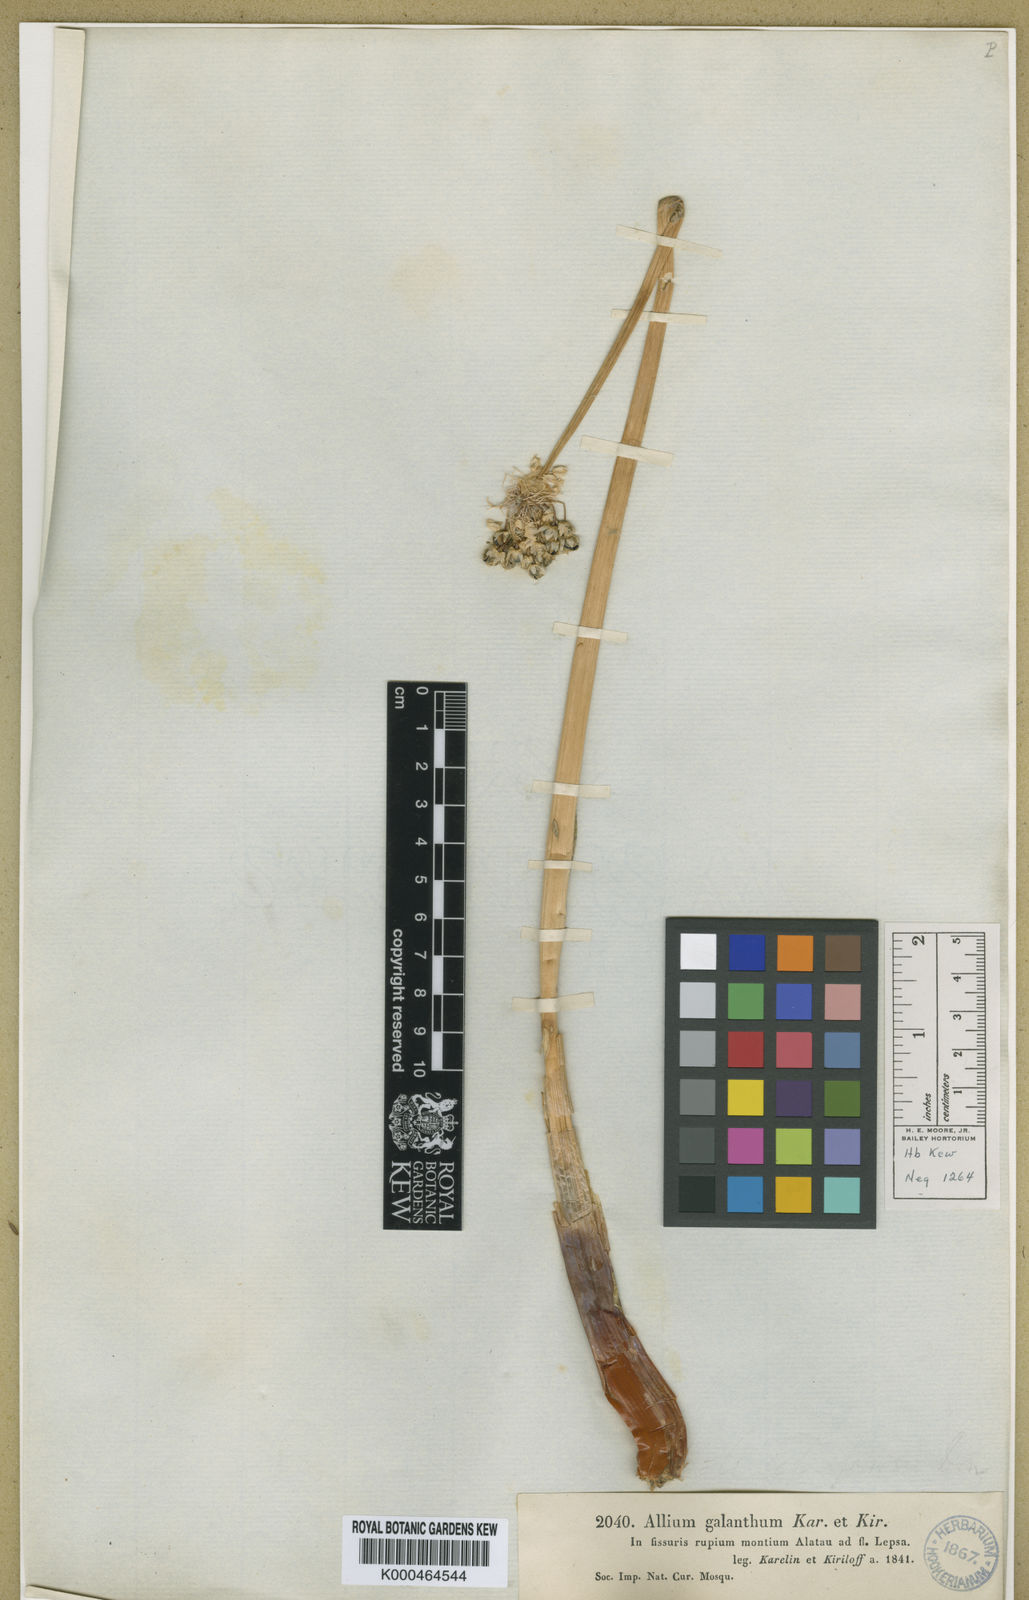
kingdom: Plantae
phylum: Tracheophyta
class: Liliopsida
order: Asparagales
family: Amaryllidaceae
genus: Allium
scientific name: Allium galanthum
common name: Snowdrop onion
